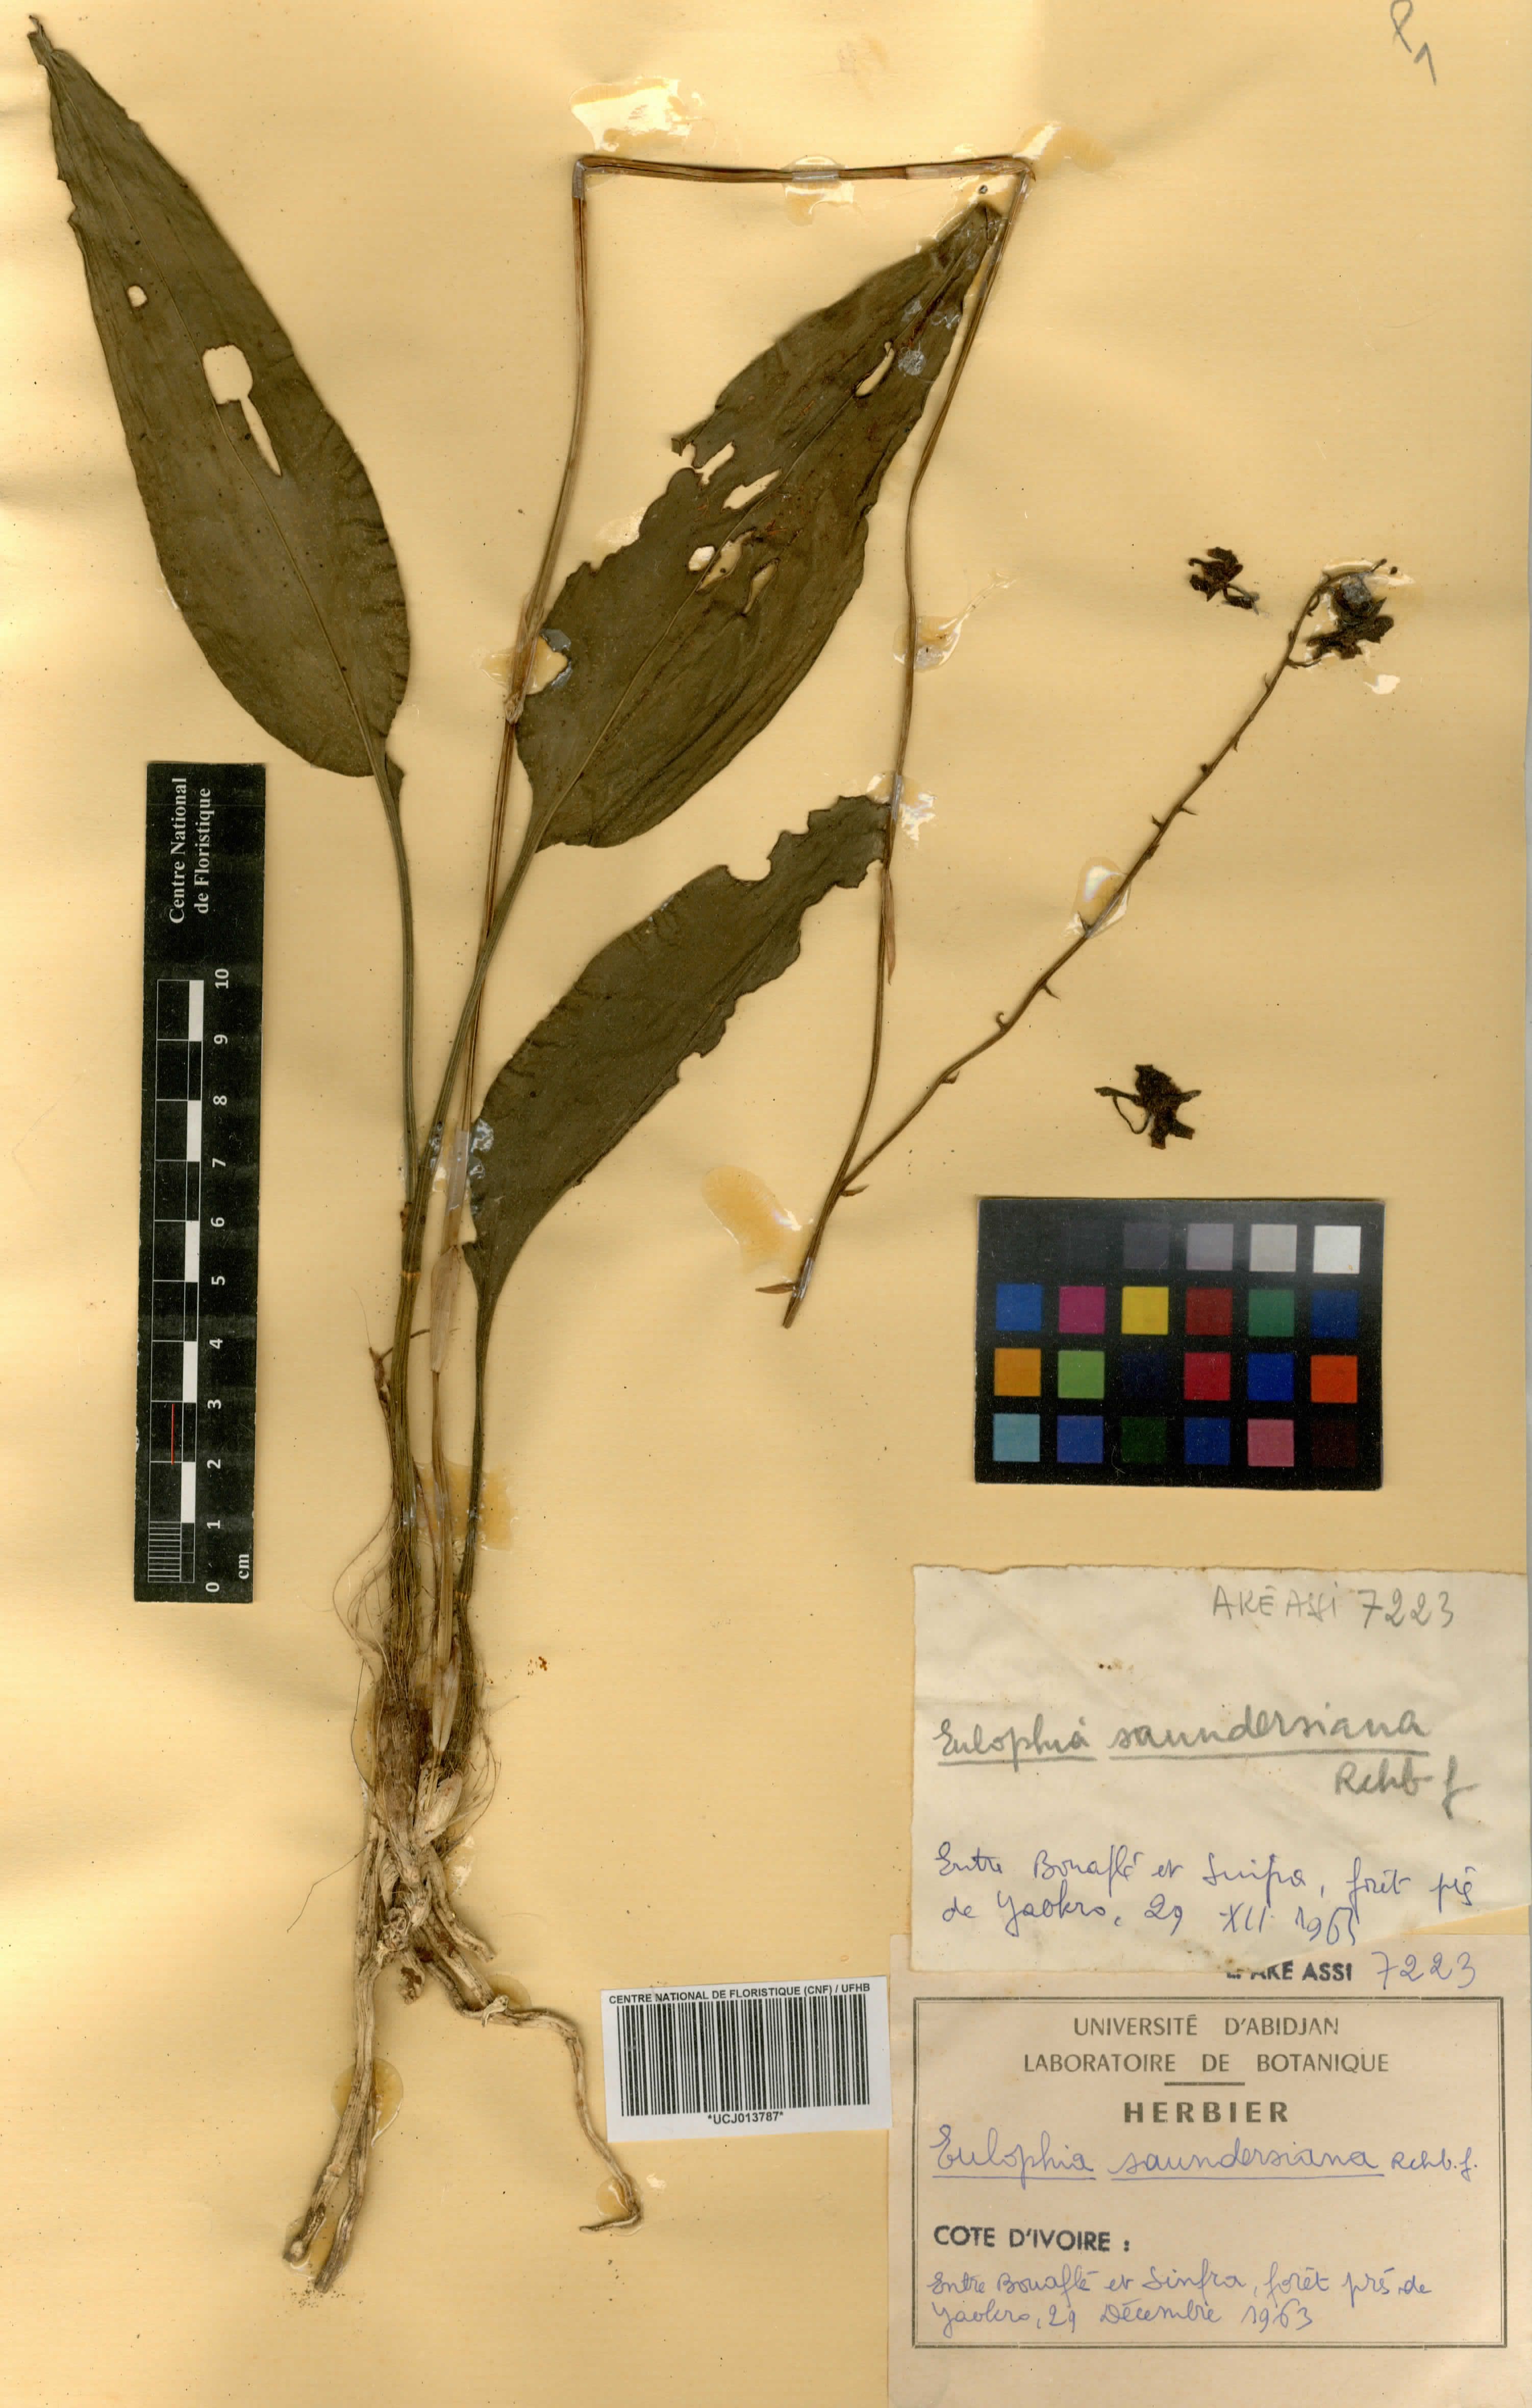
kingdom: Plantae
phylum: Tracheophyta
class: Liliopsida
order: Asparagales
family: Orchidaceae
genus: Eulophia
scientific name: Eulophia ramifera
